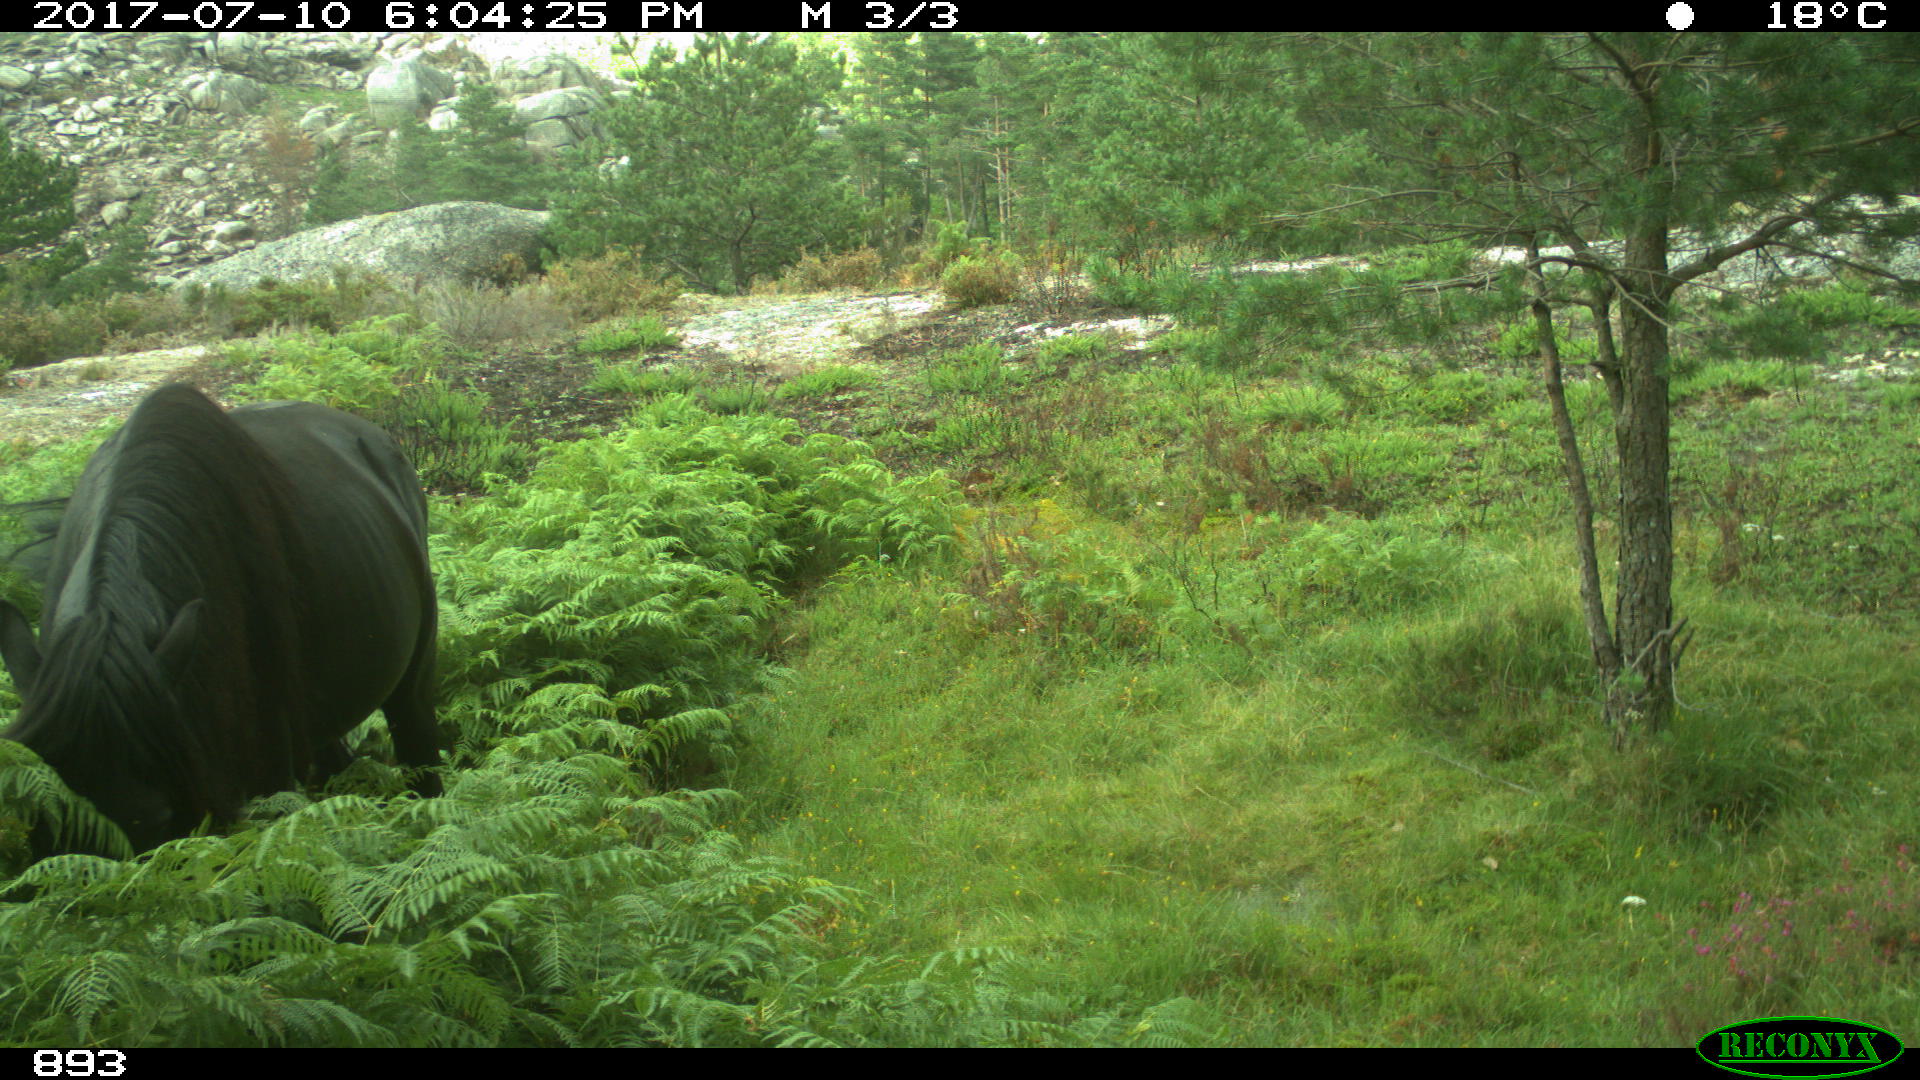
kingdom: Animalia
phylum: Chordata
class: Mammalia
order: Perissodactyla
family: Equidae
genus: Equus
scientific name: Equus caballus
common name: Horse
